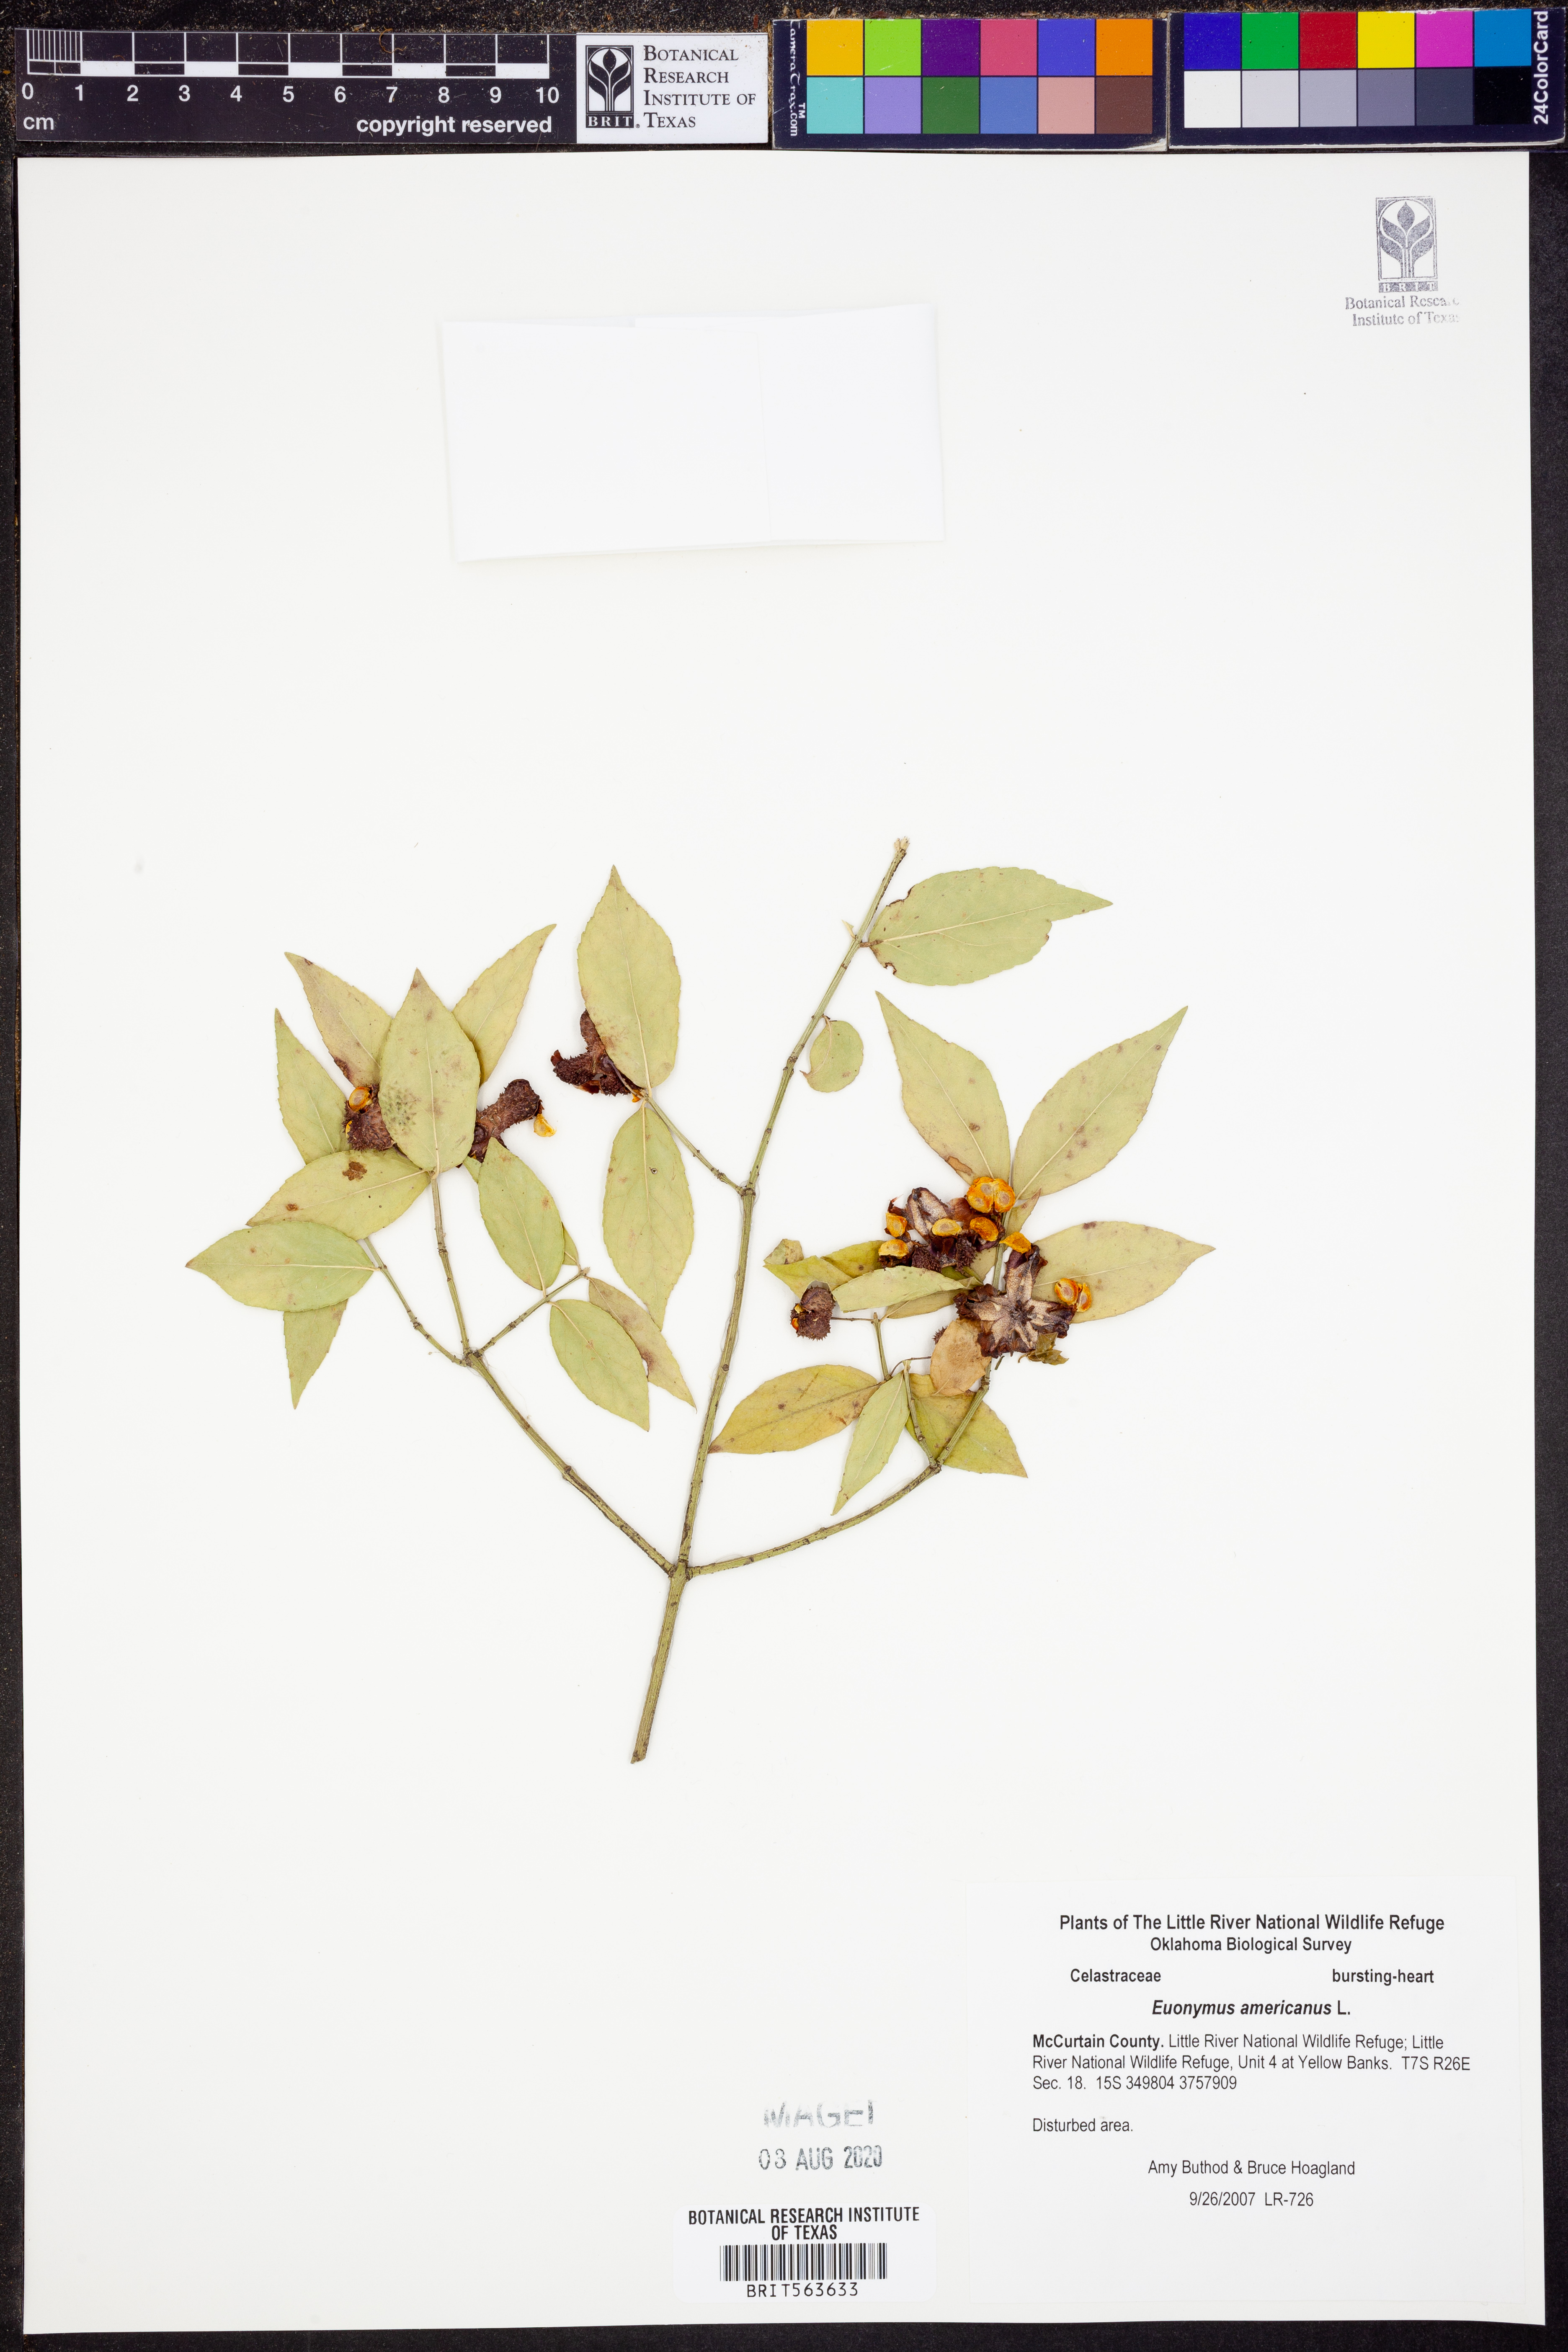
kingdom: Plantae
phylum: Tracheophyta
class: Magnoliopsida
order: Celastrales
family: Celastraceae
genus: Euonymus
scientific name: Euonymus americanus
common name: Bursting-heart
